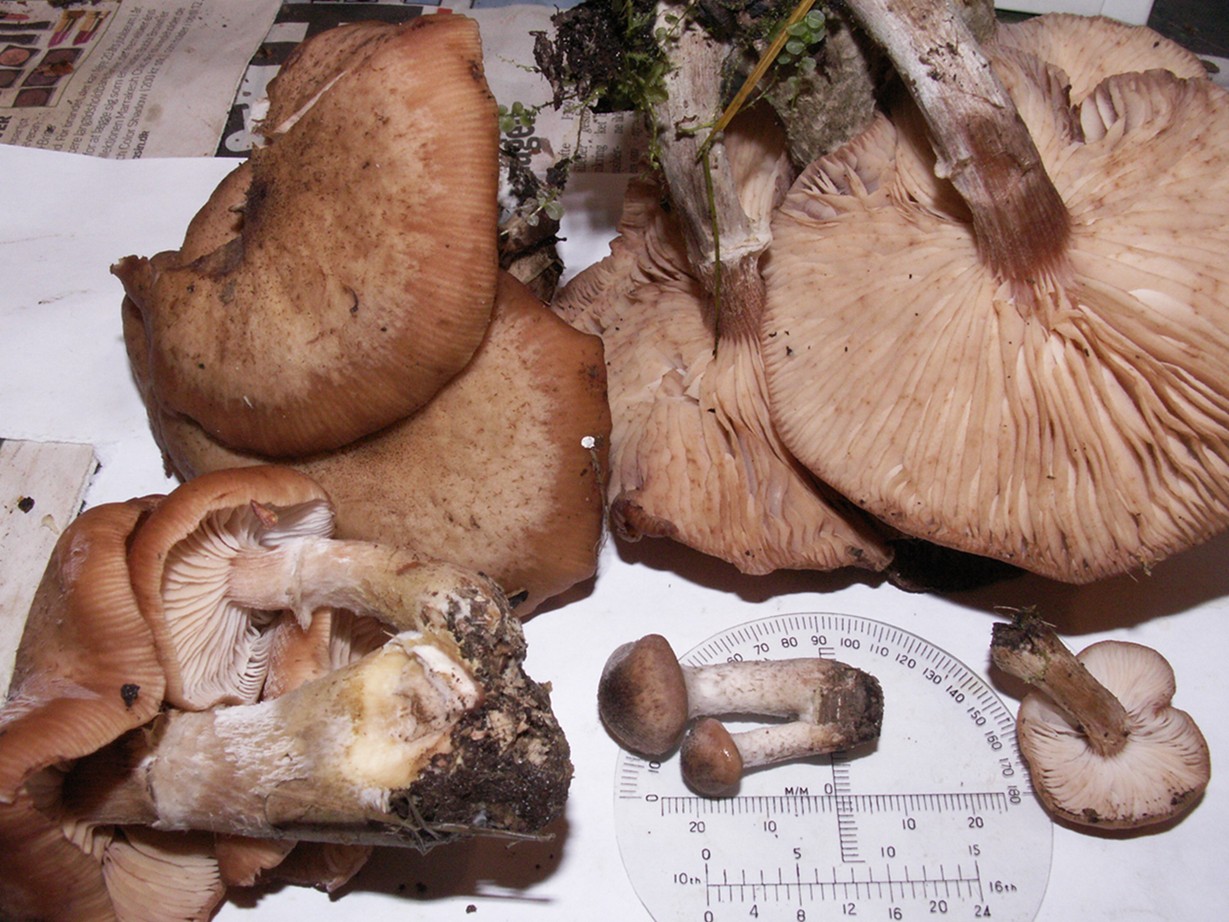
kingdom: Fungi
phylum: Basidiomycota
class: Agaricomycetes
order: Agaricales
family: Physalacriaceae
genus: Armillaria
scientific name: Armillaria cepistipes
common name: knoldfodet honningsvamp
